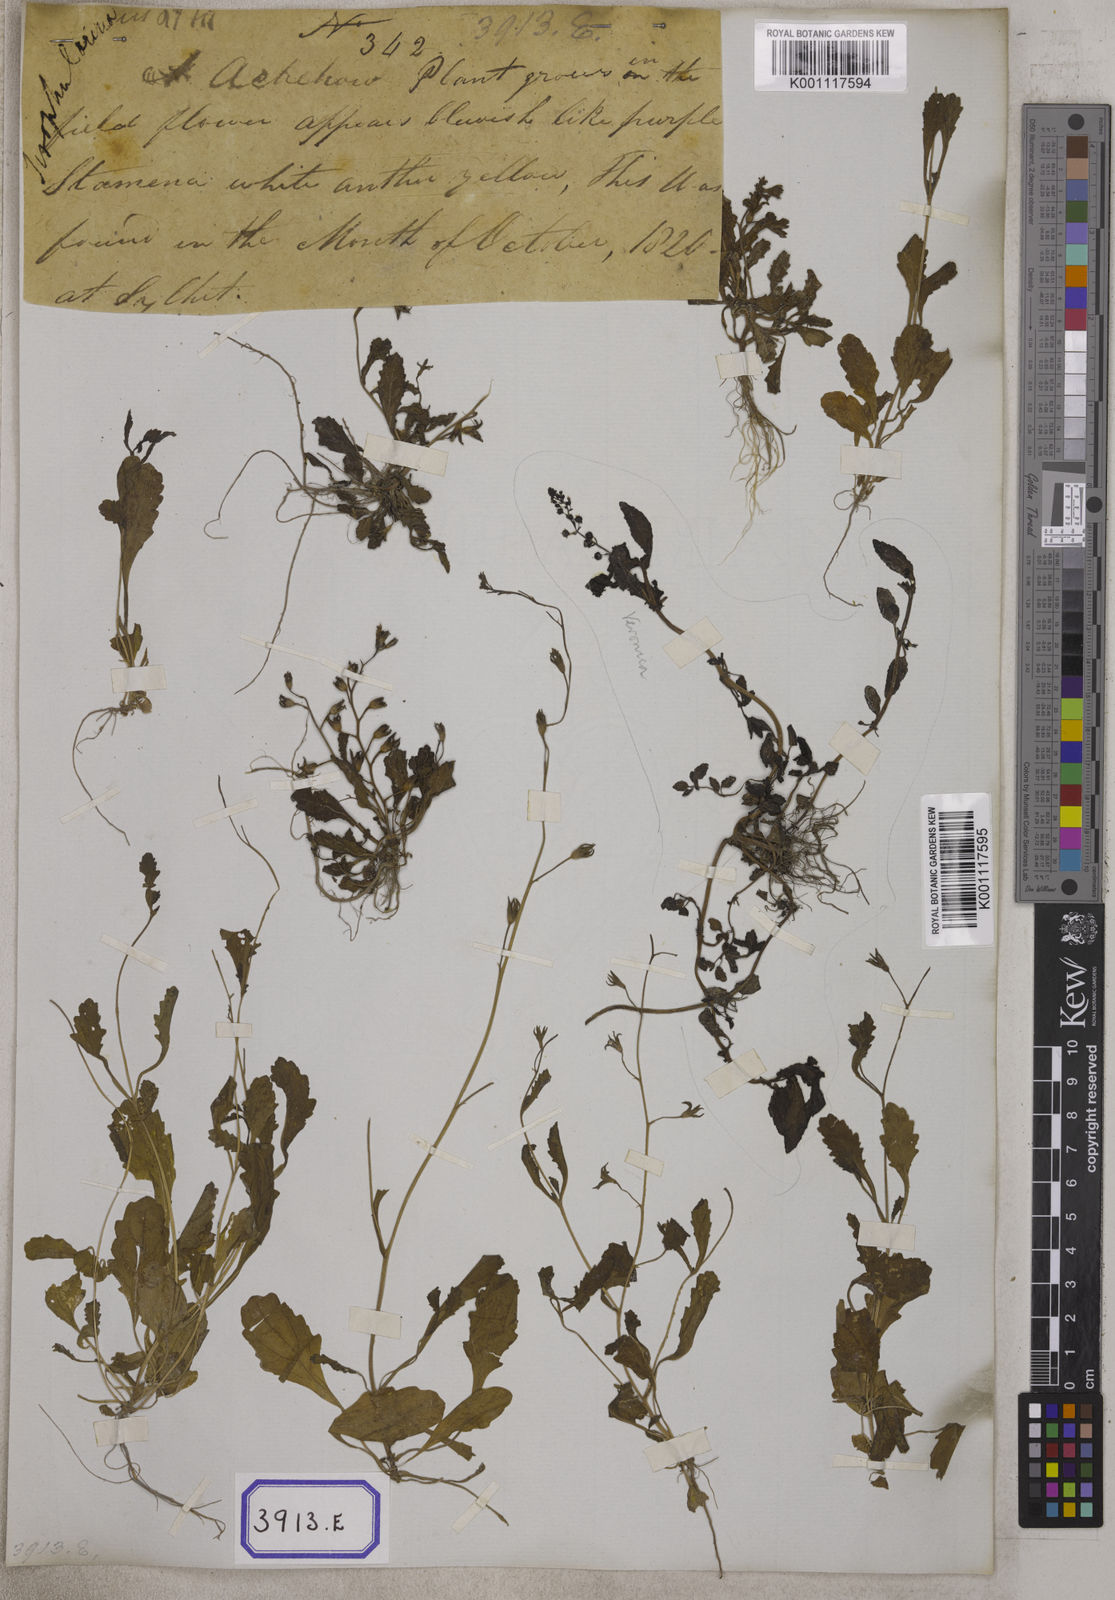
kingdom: Plantae
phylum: Tracheophyta
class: Magnoliopsida
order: Lamiales
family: Mazaceae
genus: Mazus
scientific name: Mazus pumilus
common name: Japanese mazus
